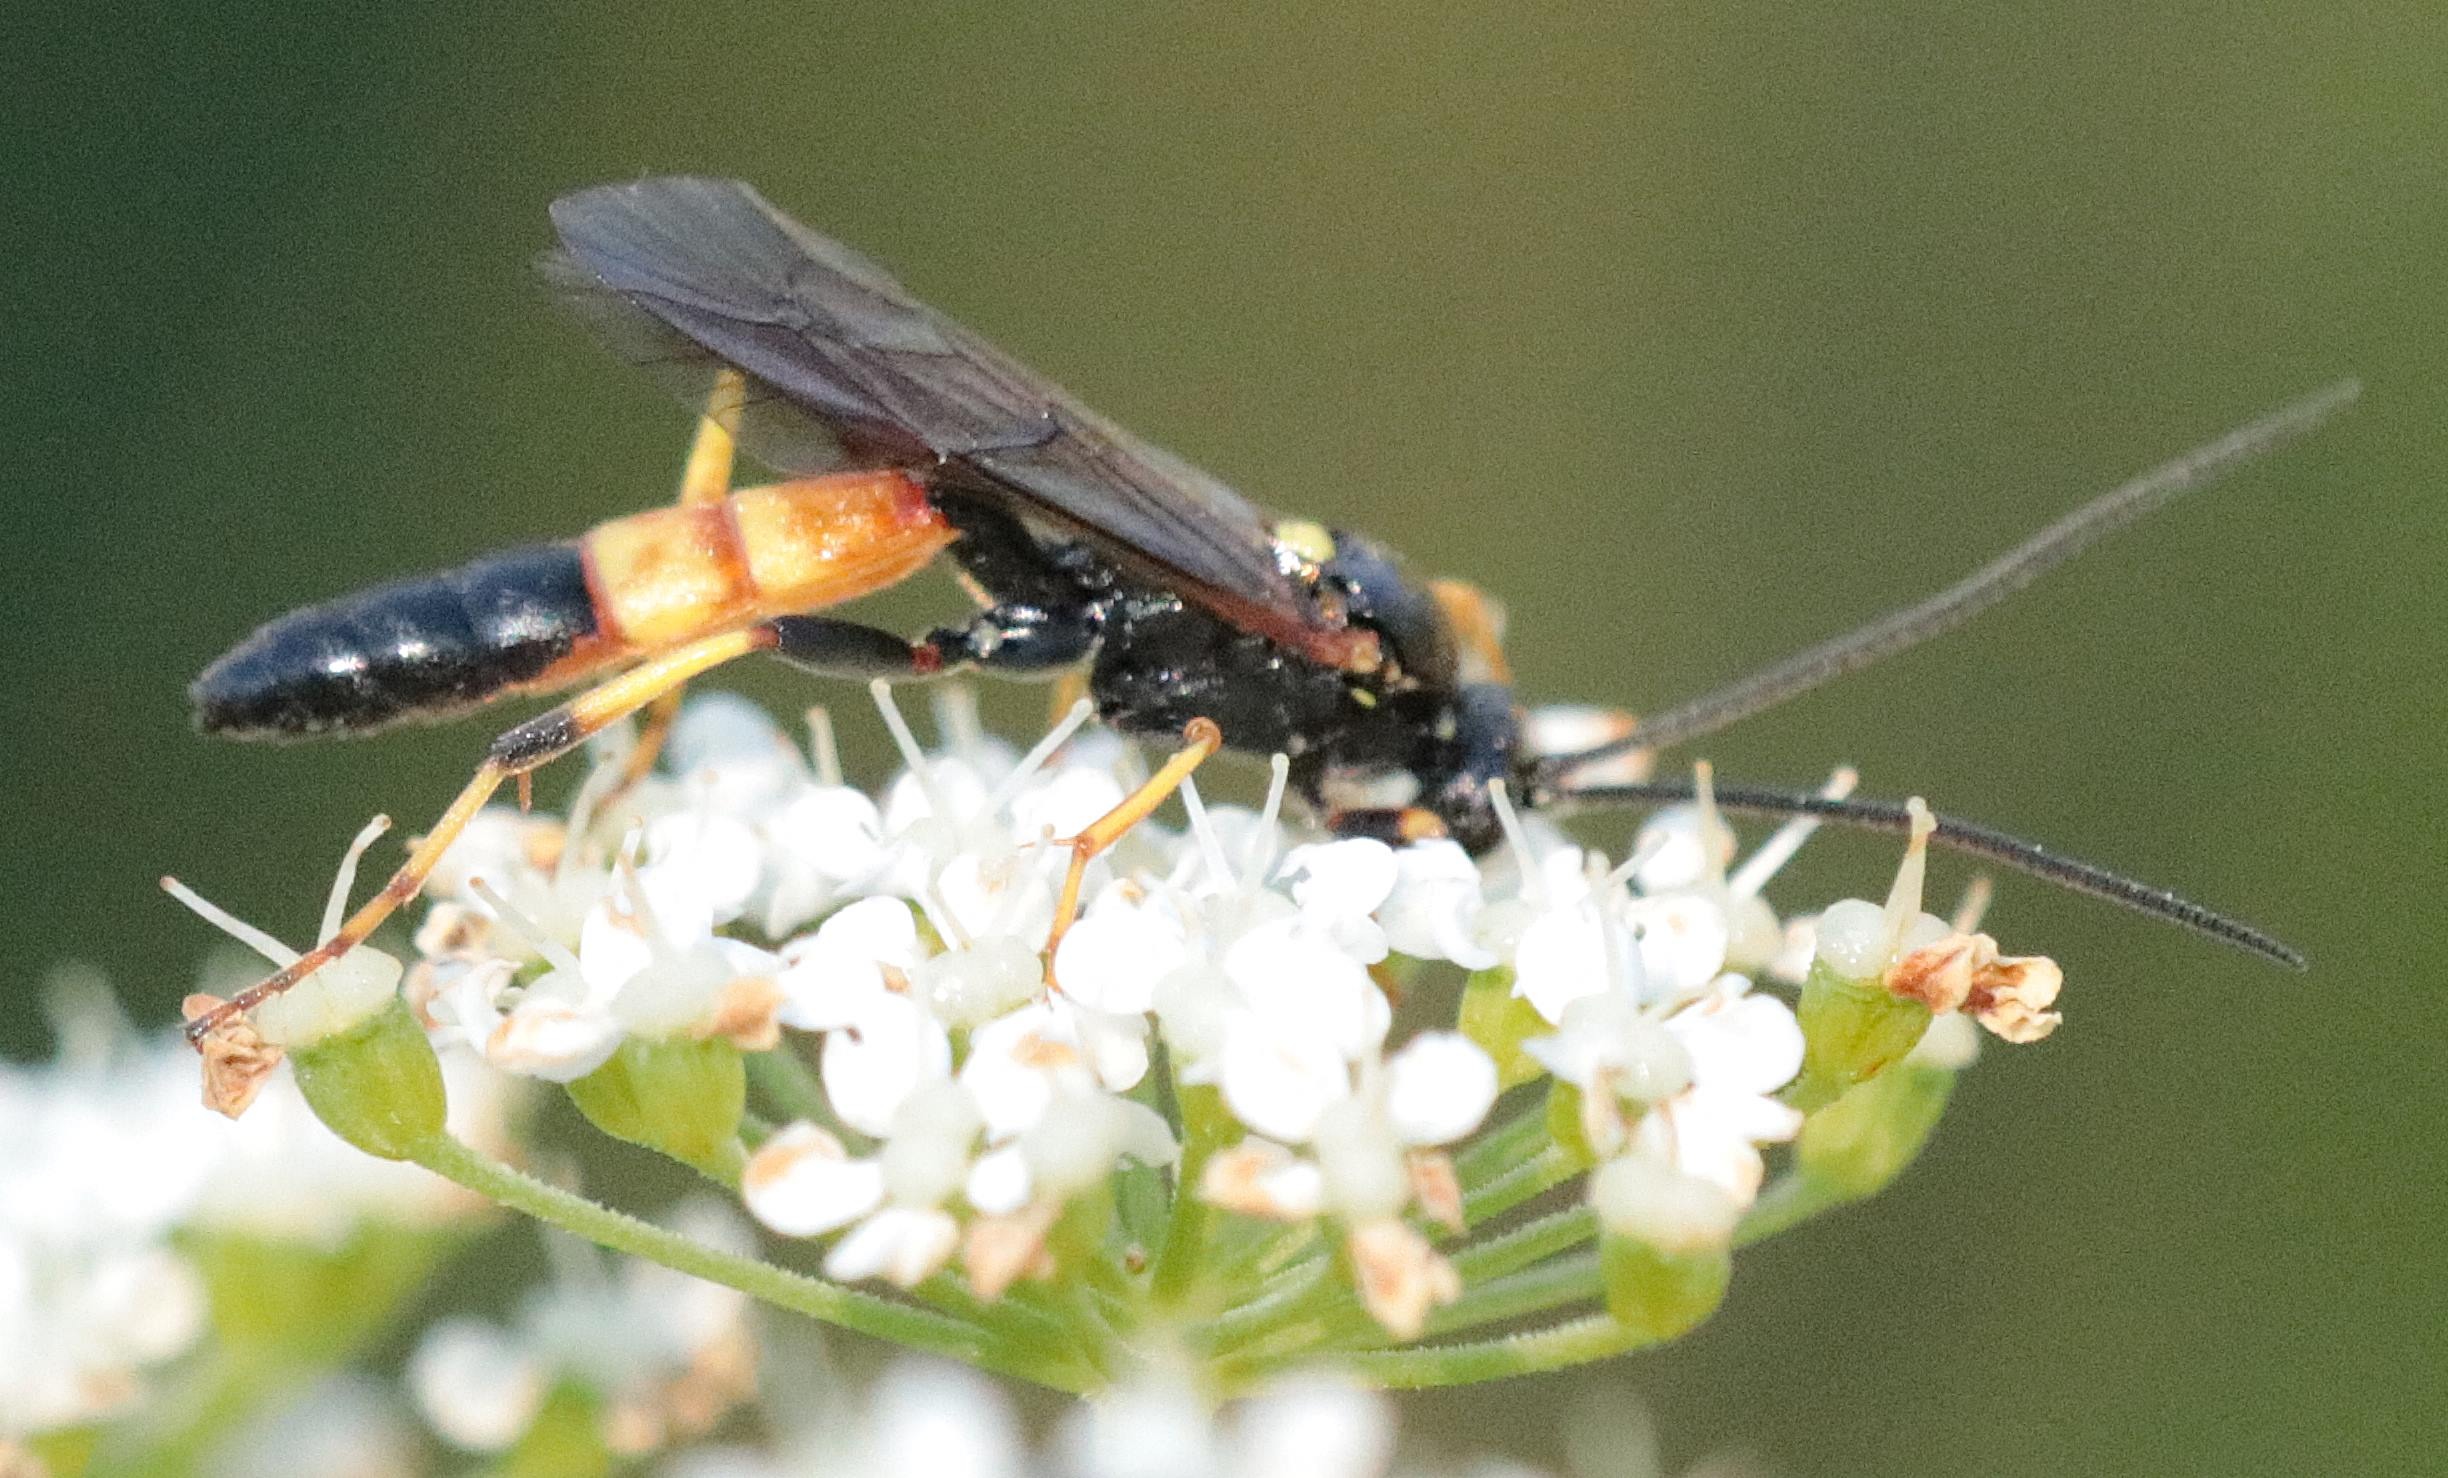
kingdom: Animalia
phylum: Arthropoda
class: Insecta
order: Hymenoptera
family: Ichneumonidae
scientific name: Ichneumonidae
